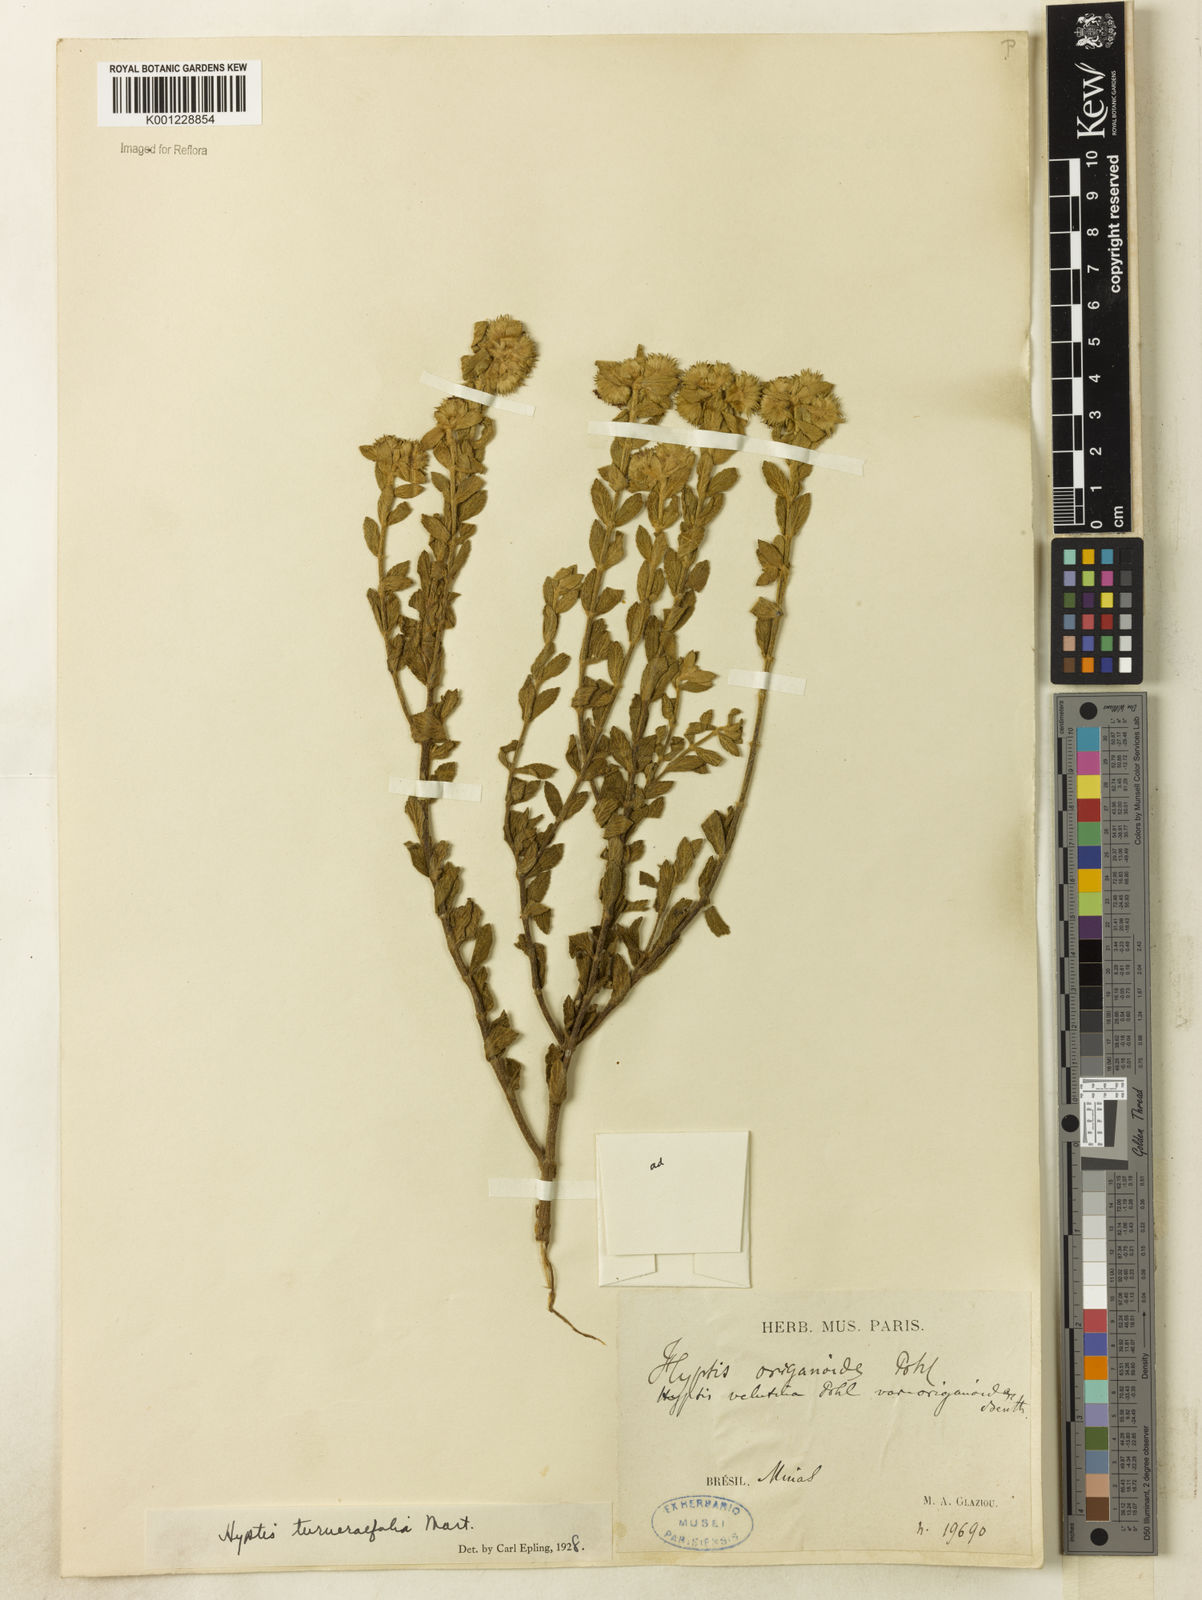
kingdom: Plantae
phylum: Tracheophyta
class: Magnoliopsida
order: Lamiales
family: Lamiaceae
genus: Hyptis
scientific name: Hyptis turnerifolia
